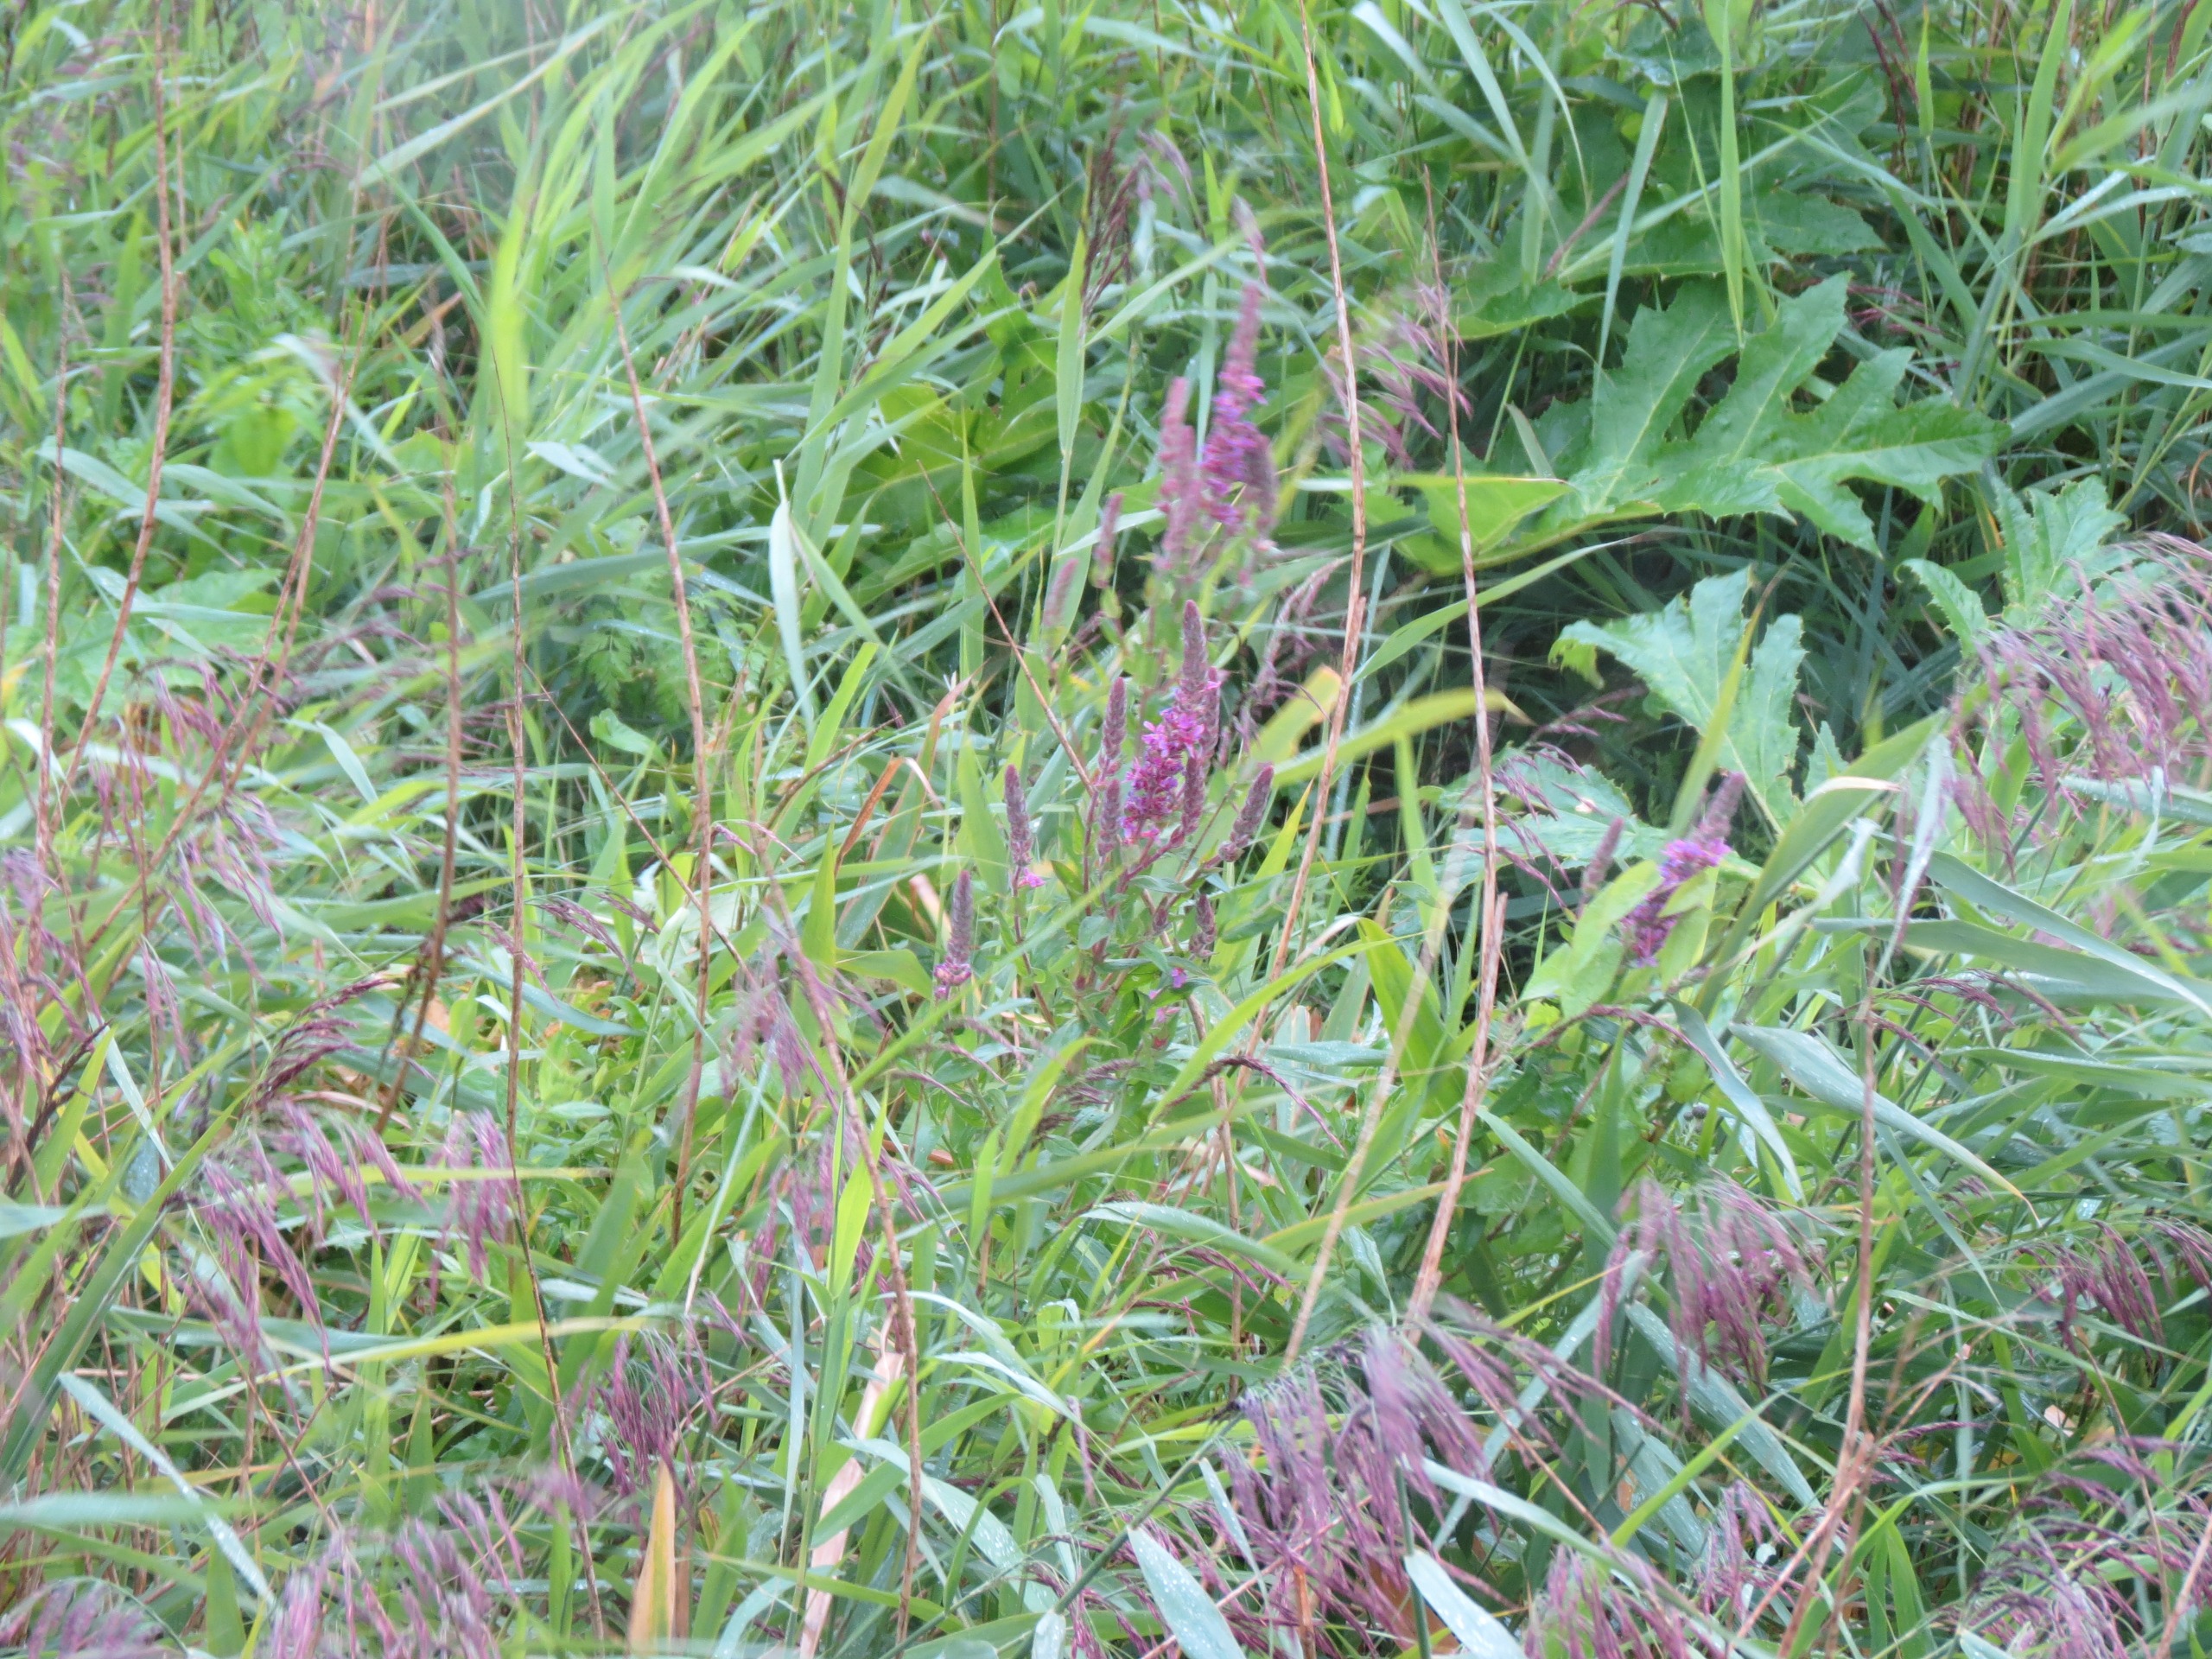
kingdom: Plantae
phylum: Tracheophyta
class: Magnoliopsida
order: Myrtales
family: Lythraceae
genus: Lythrum
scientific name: Lythrum salicaria
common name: Kattehale
